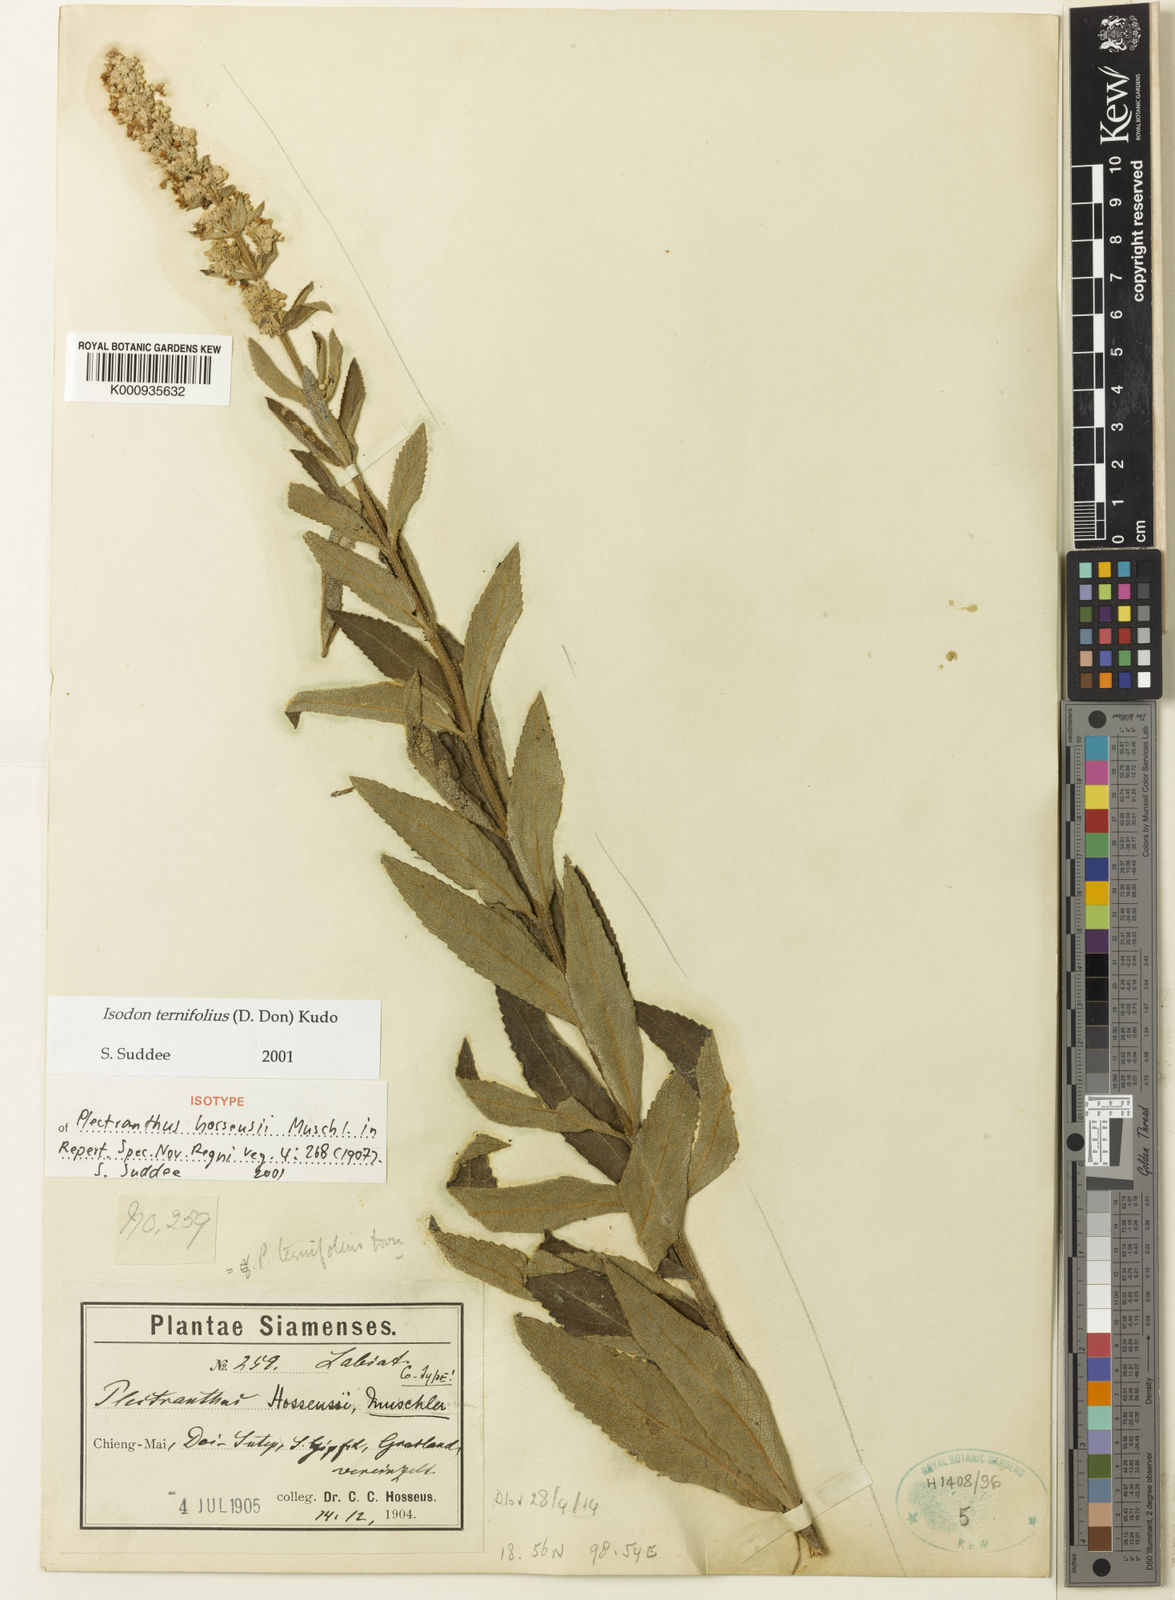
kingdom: Plantae
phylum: Tracheophyta
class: Magnoliopsida
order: Lamiales
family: Lamiaceae
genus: Isodon
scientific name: Isodon lophanthoides
